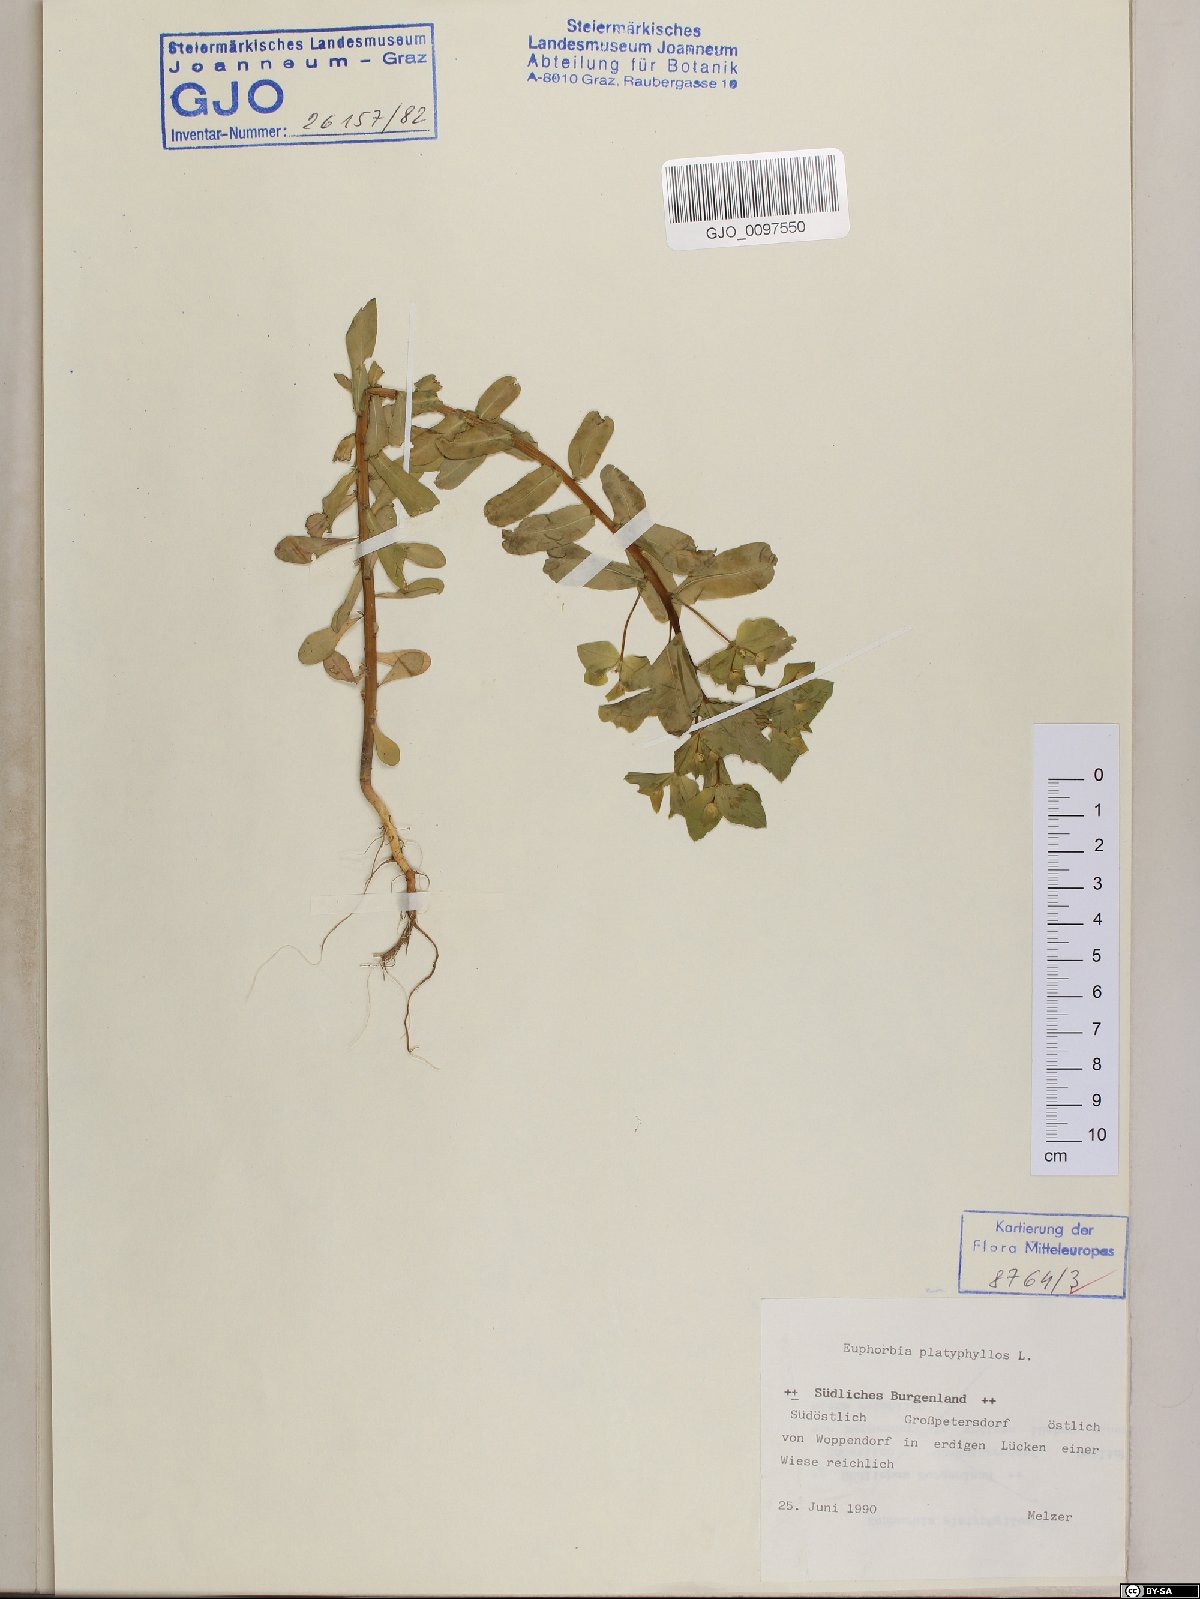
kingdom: Plantae
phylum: Tracheophyta
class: Magnoliopsida
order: Malpighiales
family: Euphorbiaceae
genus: Euphorbia
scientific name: Euphorbia platyphyllos
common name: Broad-leaved spurge
